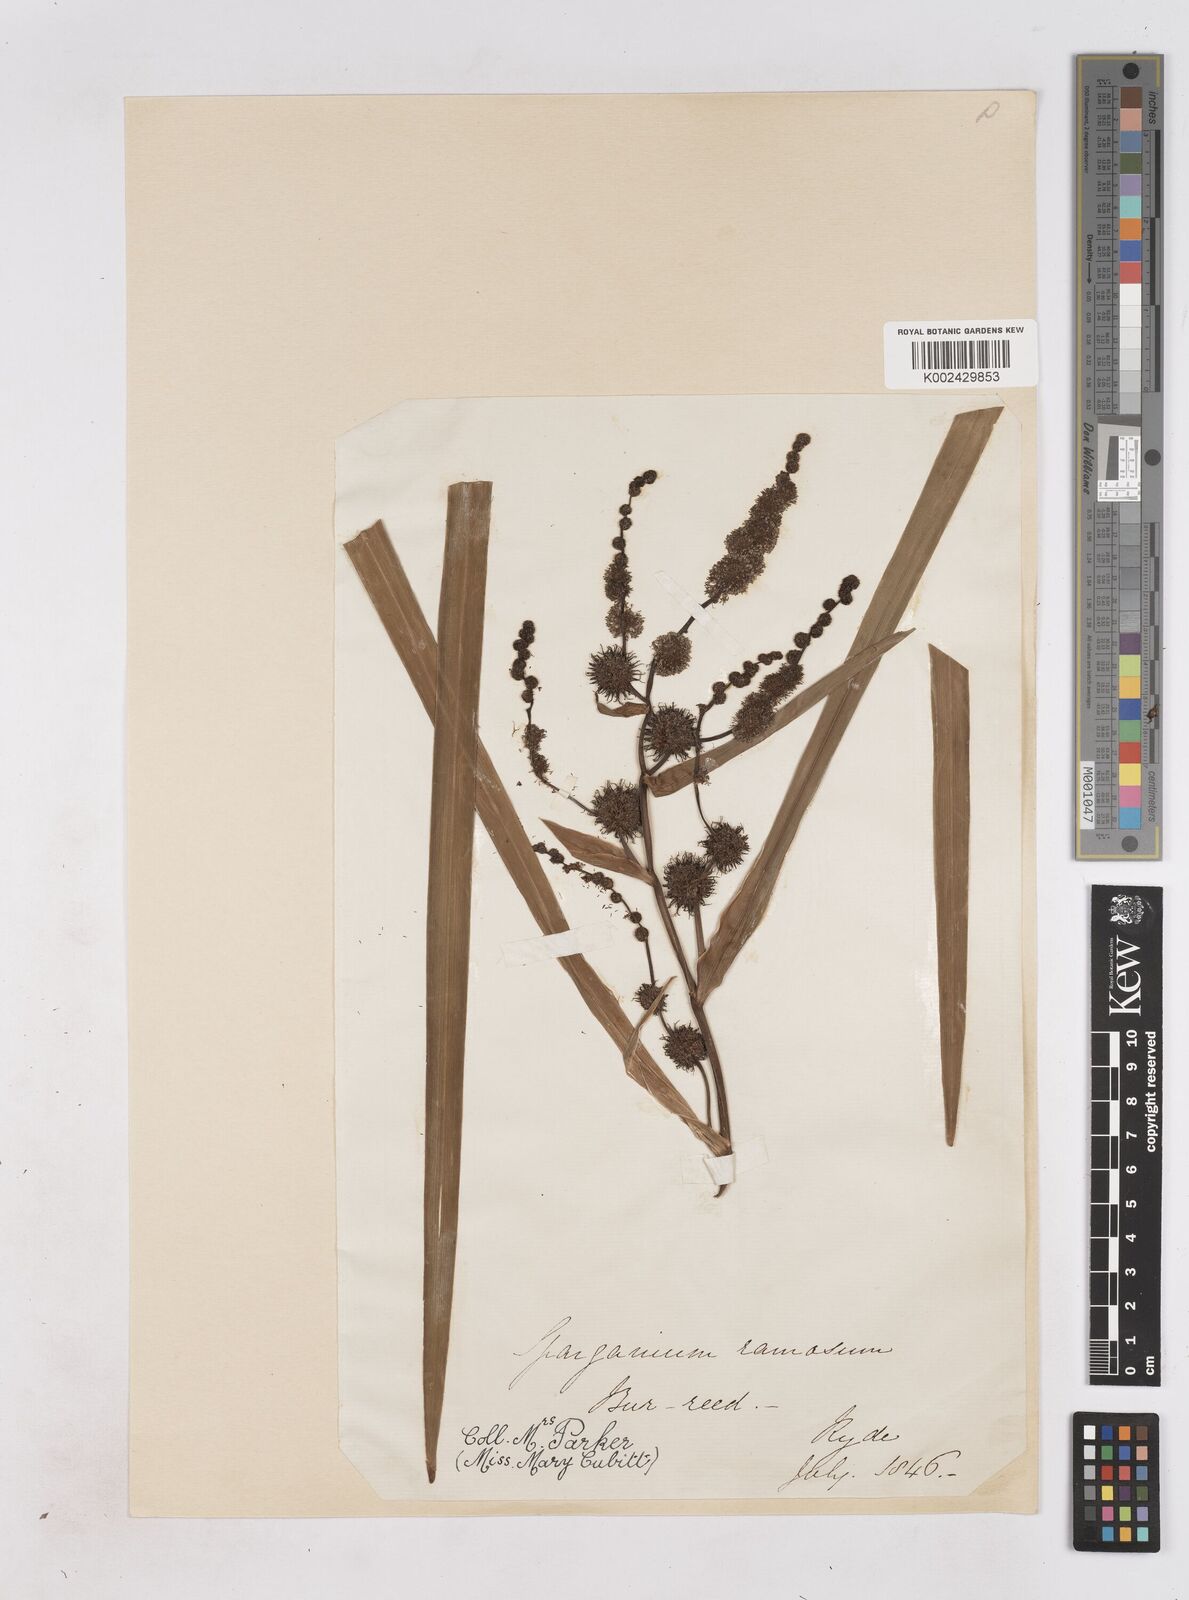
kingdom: Plantae
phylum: Tracheophyta
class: Liliopsida
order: Poales
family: Typhaceae
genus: Sparganium
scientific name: Sparganium erectum
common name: Branched bur-reed
